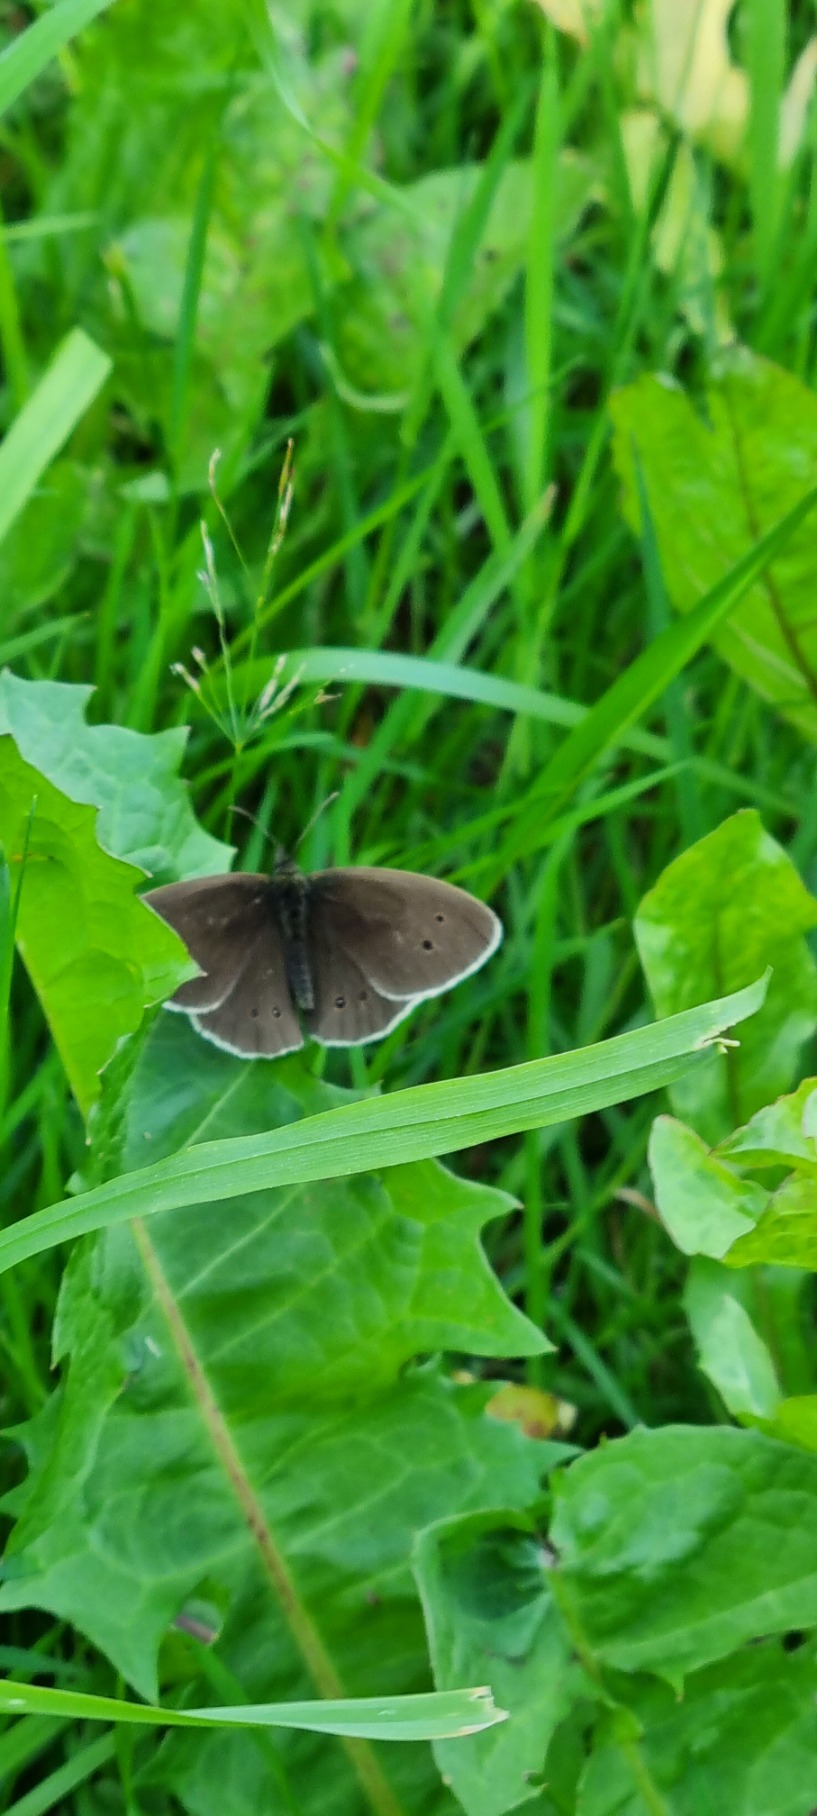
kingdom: Animalia
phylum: Arthropoda
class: Insecta
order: Lepidoptera
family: Nymphalidae
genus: Aphantopus
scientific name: Aphantopus hyperantus
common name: Engrandøje
